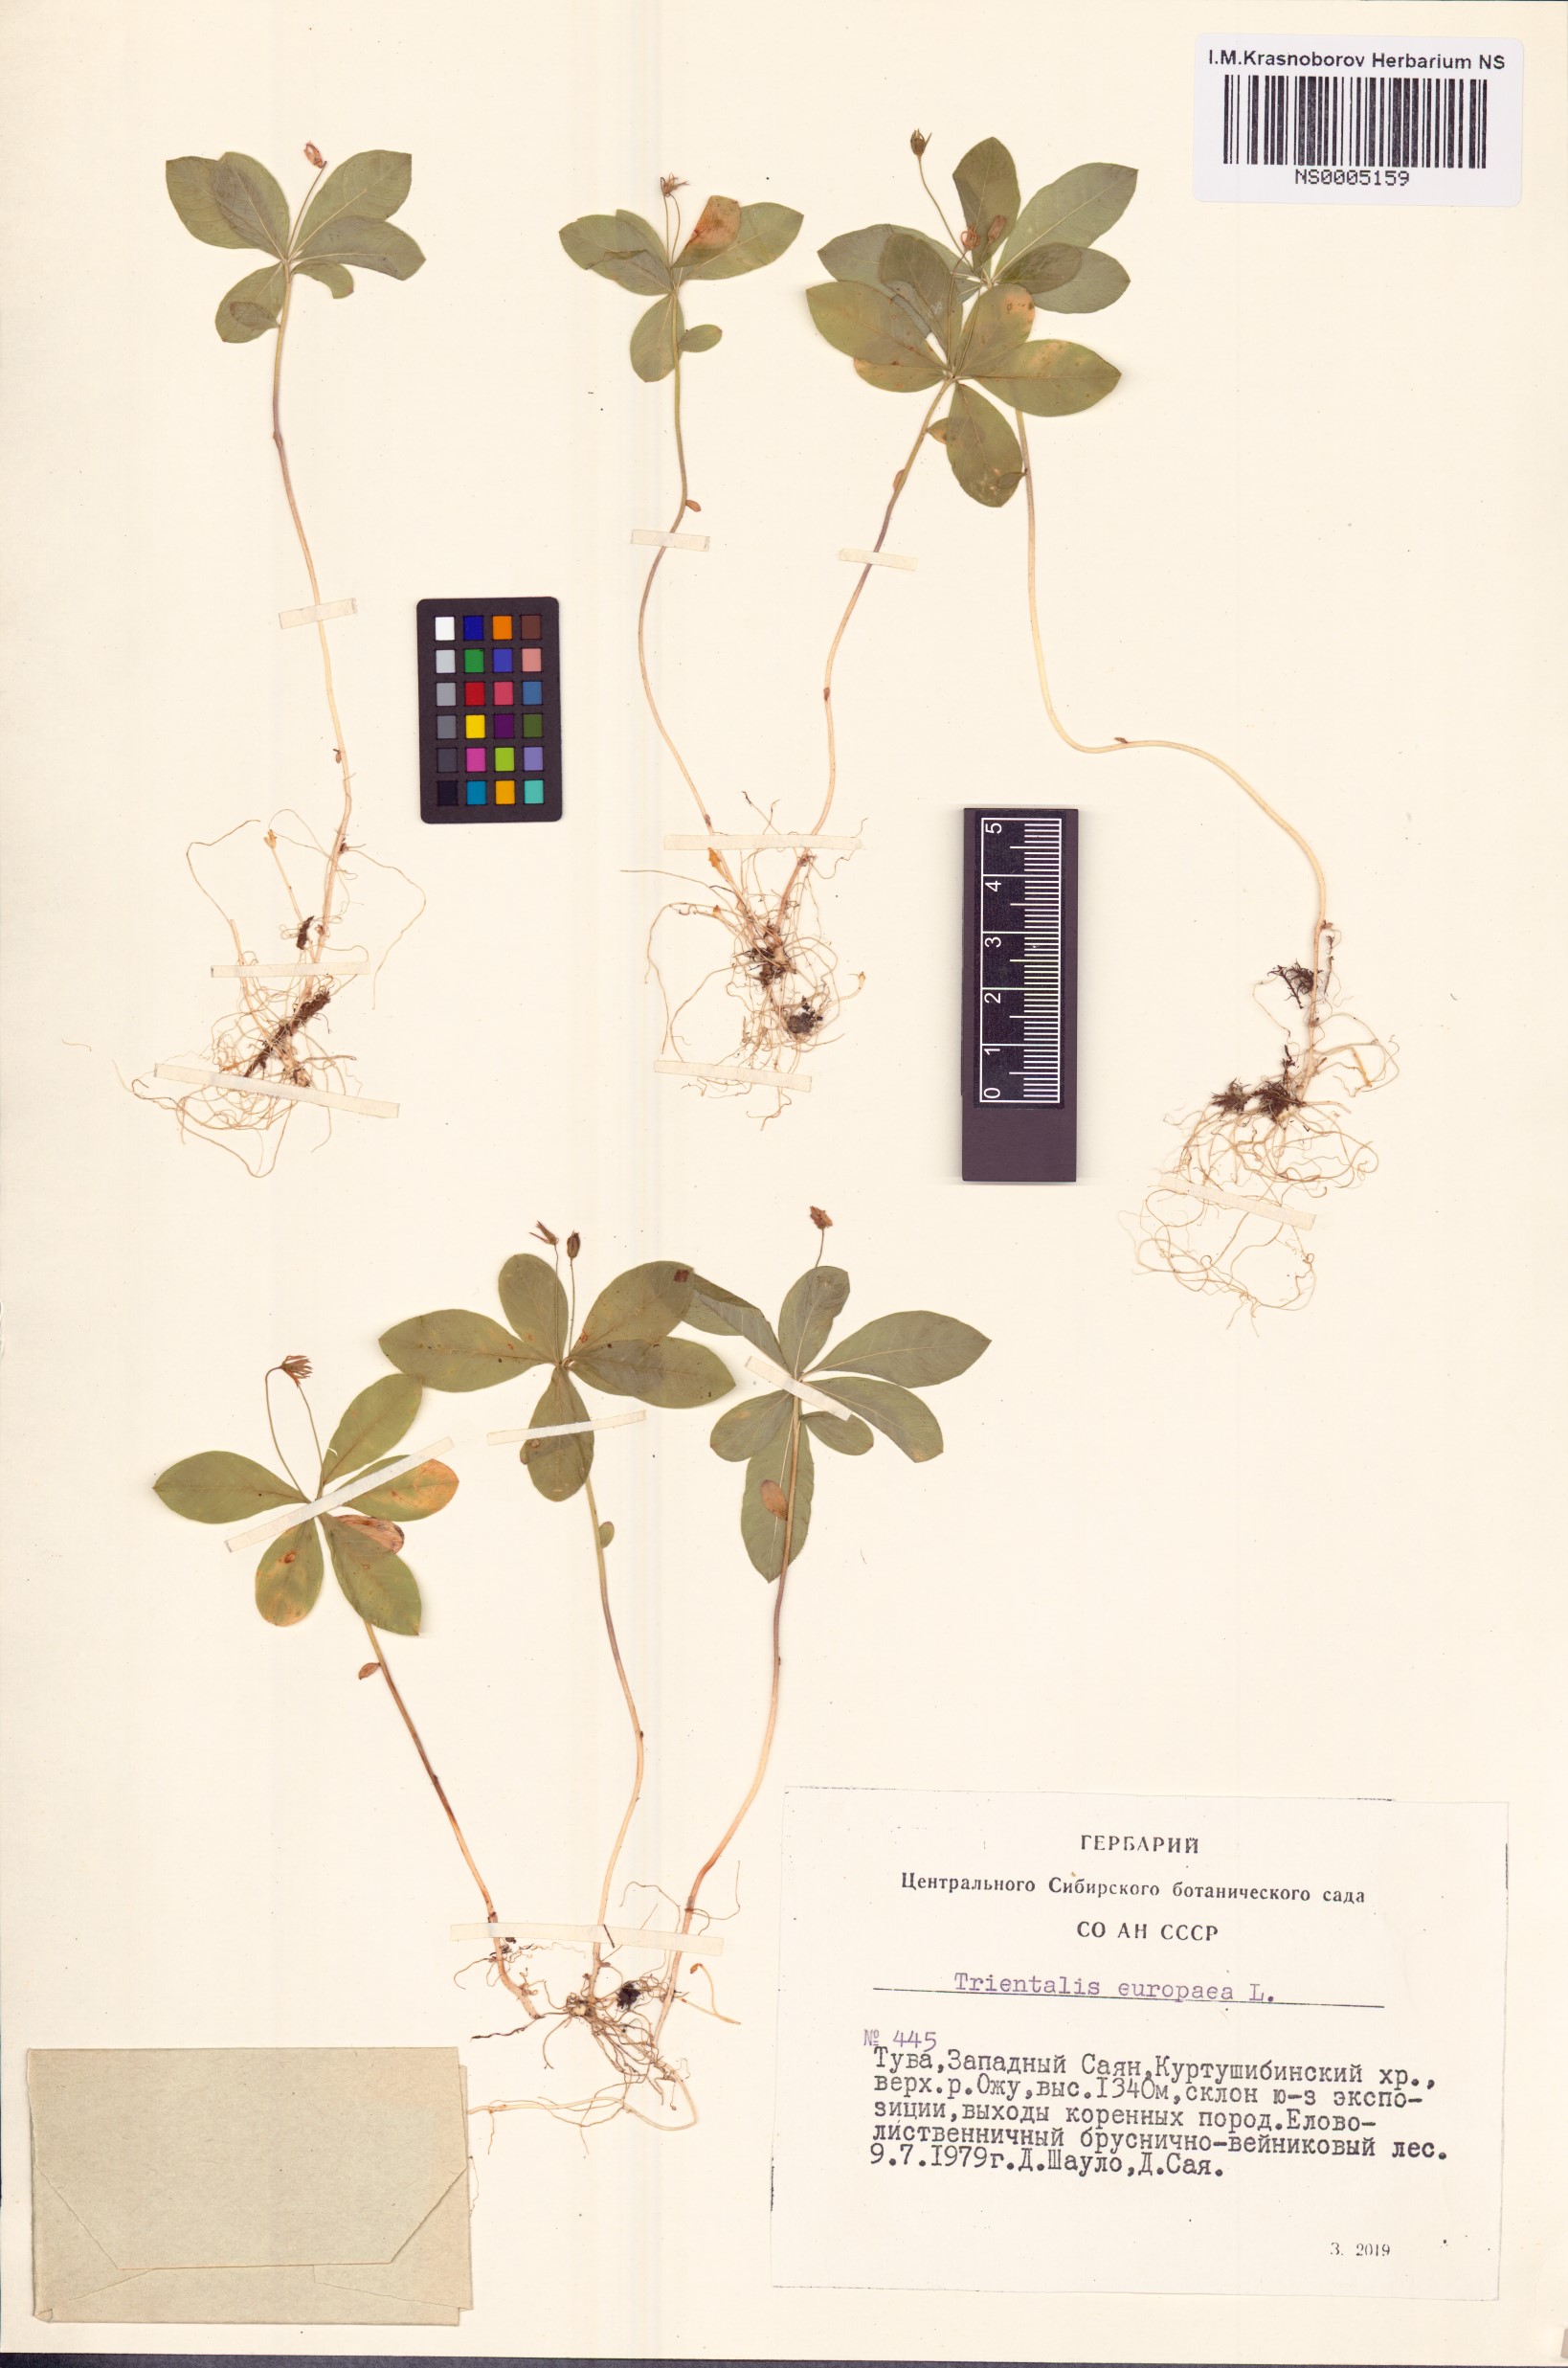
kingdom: Plantae
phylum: Tracheophyta
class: Magnoliopsida
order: Ericales
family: Primulaceae
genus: Lysimachia
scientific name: Lysimachia europaea
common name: Arctic starflower
